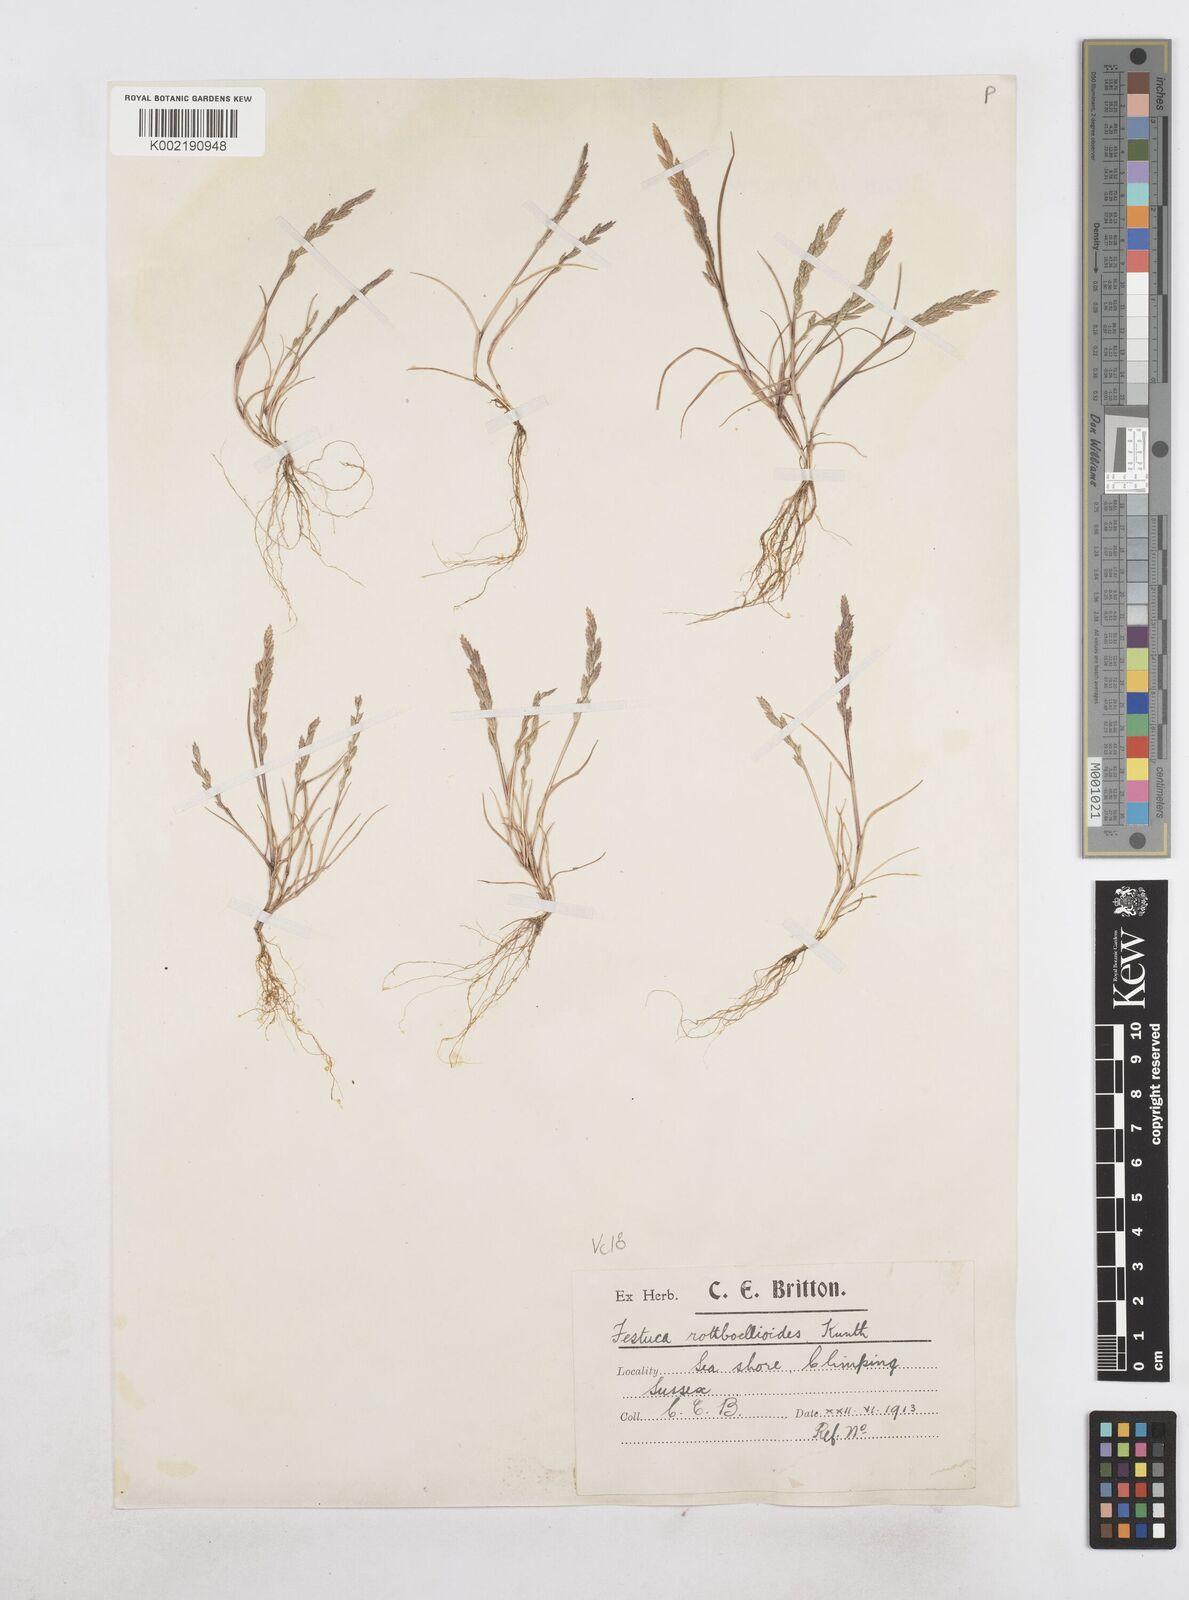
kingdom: Plantae
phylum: Tracheophyta
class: Liliopsida
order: Poales
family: Poaceae
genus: Catapodium
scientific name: Catapodium marinum
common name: Sea fern-grass
